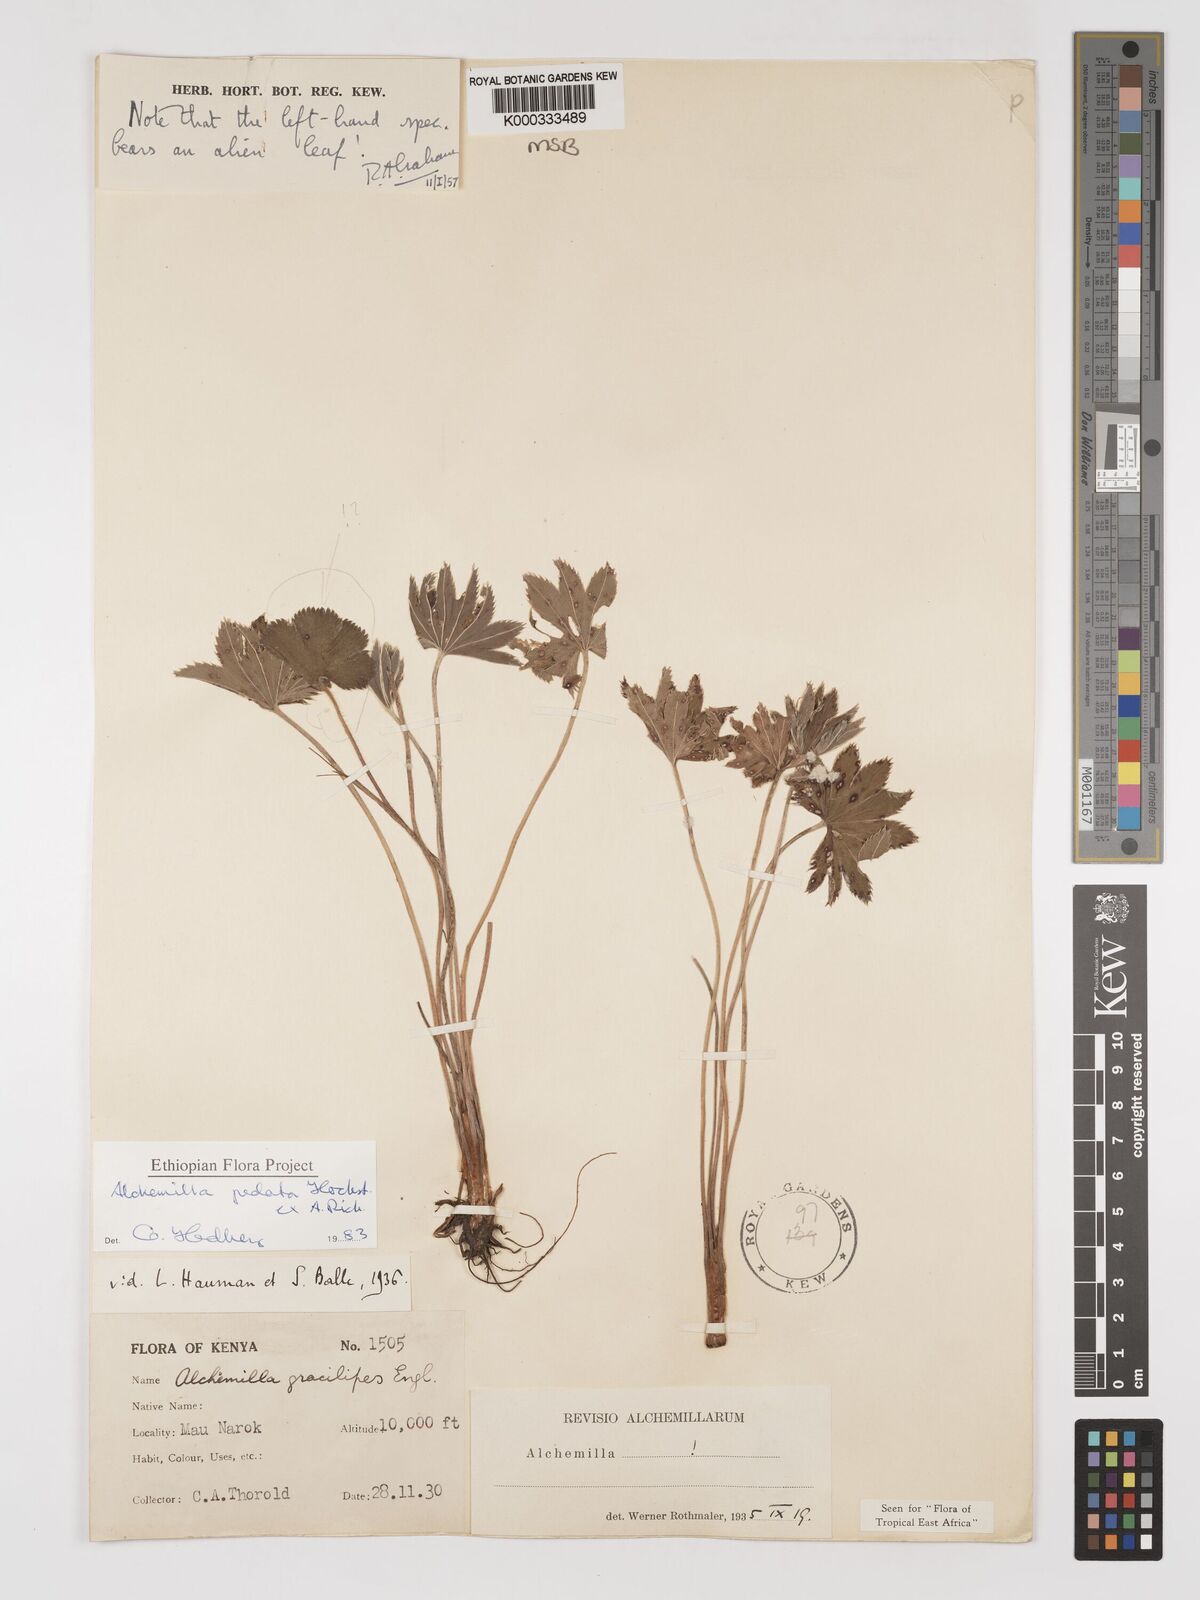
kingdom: Plantae
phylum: Tracheophyta
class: Magnoliopsida
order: Rosales
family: Rosaceae
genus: Alchemilla
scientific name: Alchemilla pedata
